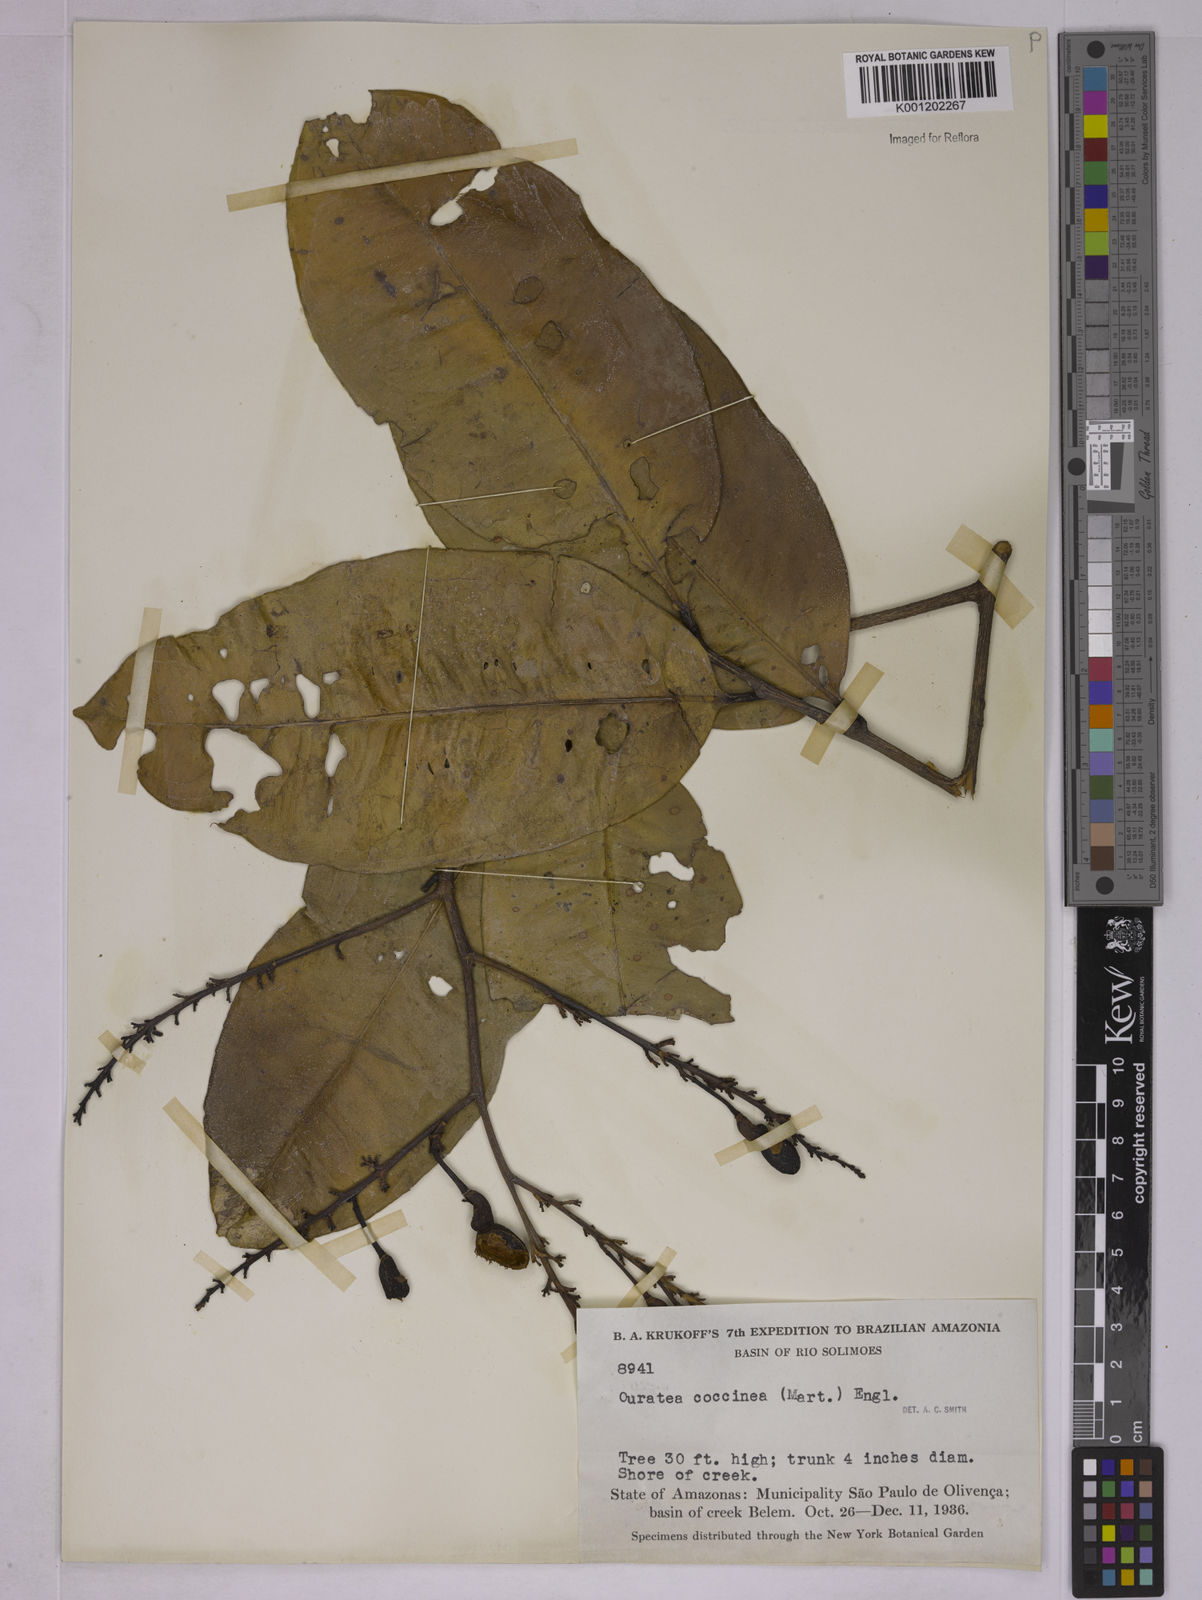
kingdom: Plantae
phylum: Tracheophyta
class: Magnoliopsida
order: Malpighiales
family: Ochnaceae
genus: Ouratea
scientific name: Ouratea
